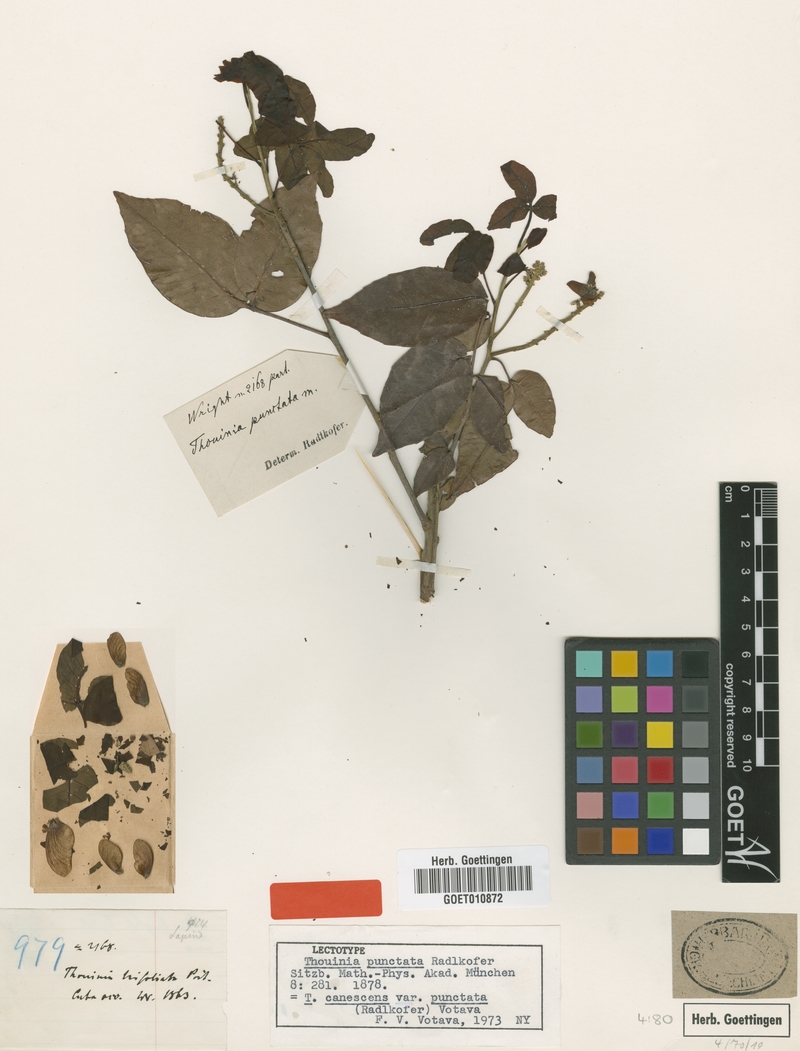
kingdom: Plantae
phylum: Tracheophyta
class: Magnoliopsida
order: Sapindales
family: Sapindaceae
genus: Thouinia
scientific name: Thouinia canescens
